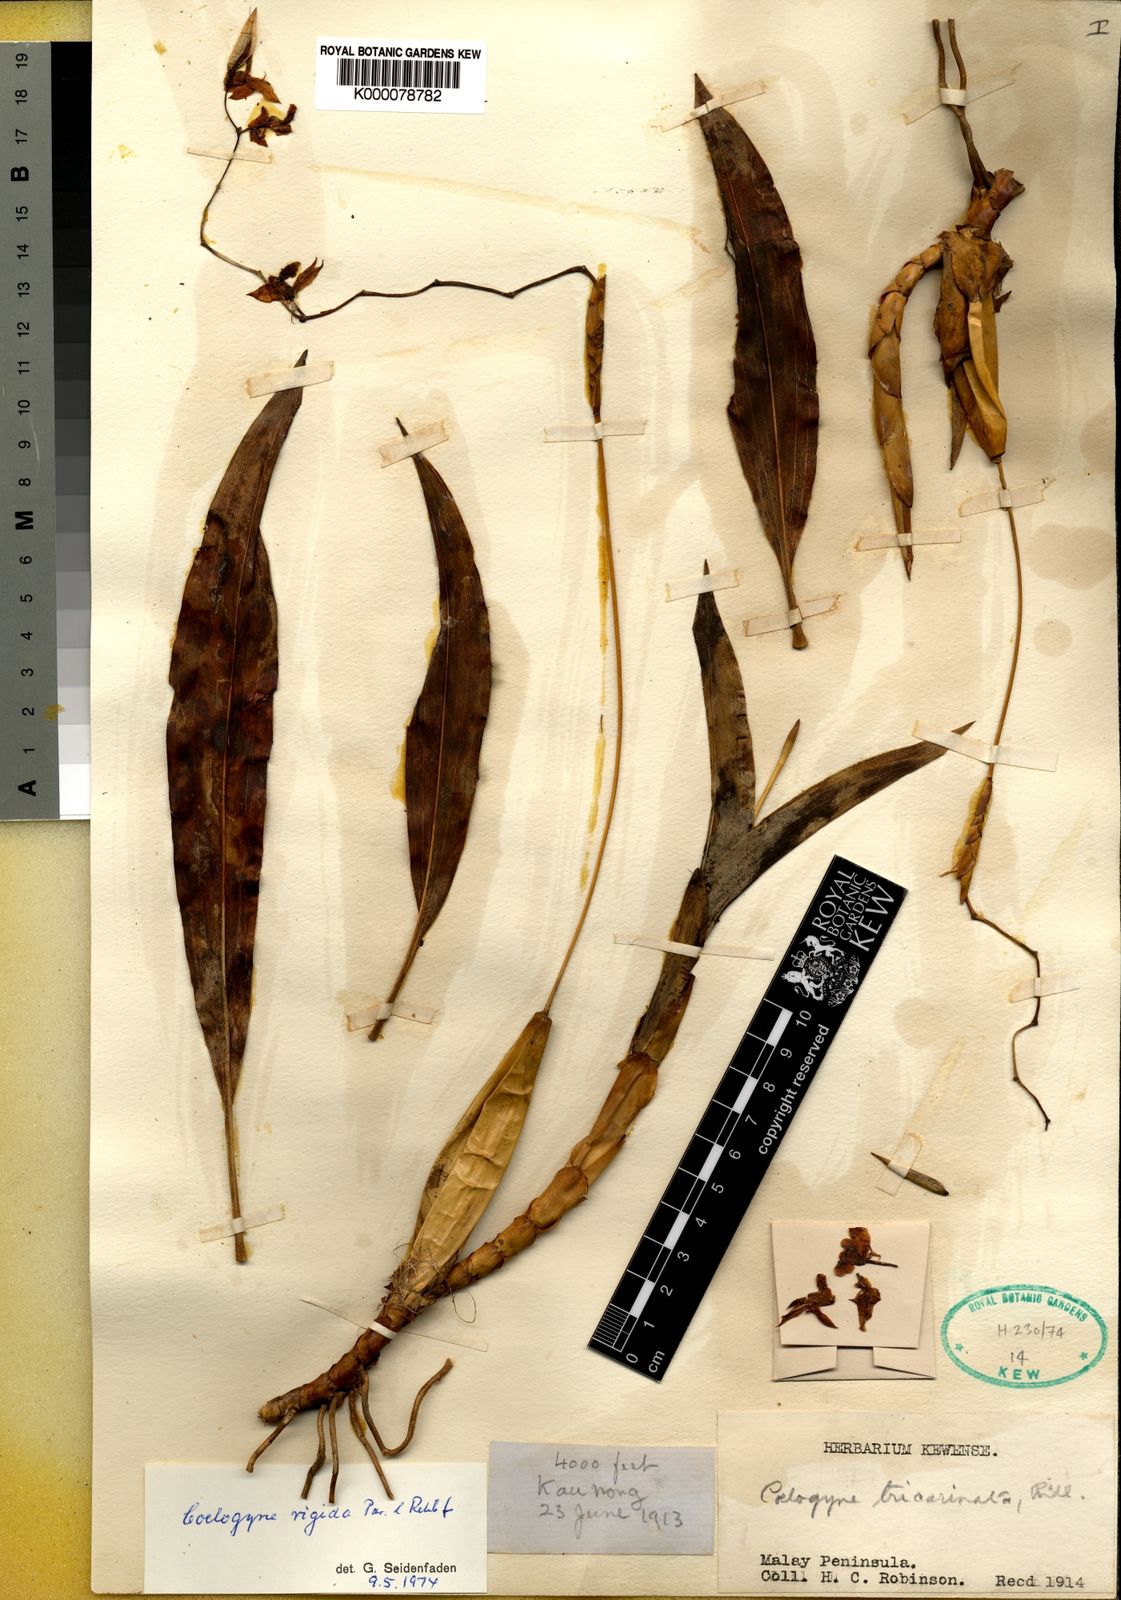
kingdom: Plantae
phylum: Tracheophyta
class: Liliopsida
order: Asparagales
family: Orchidaceae
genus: Coelogyne
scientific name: Coelogyne rigida
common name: Rigid coelogyne
